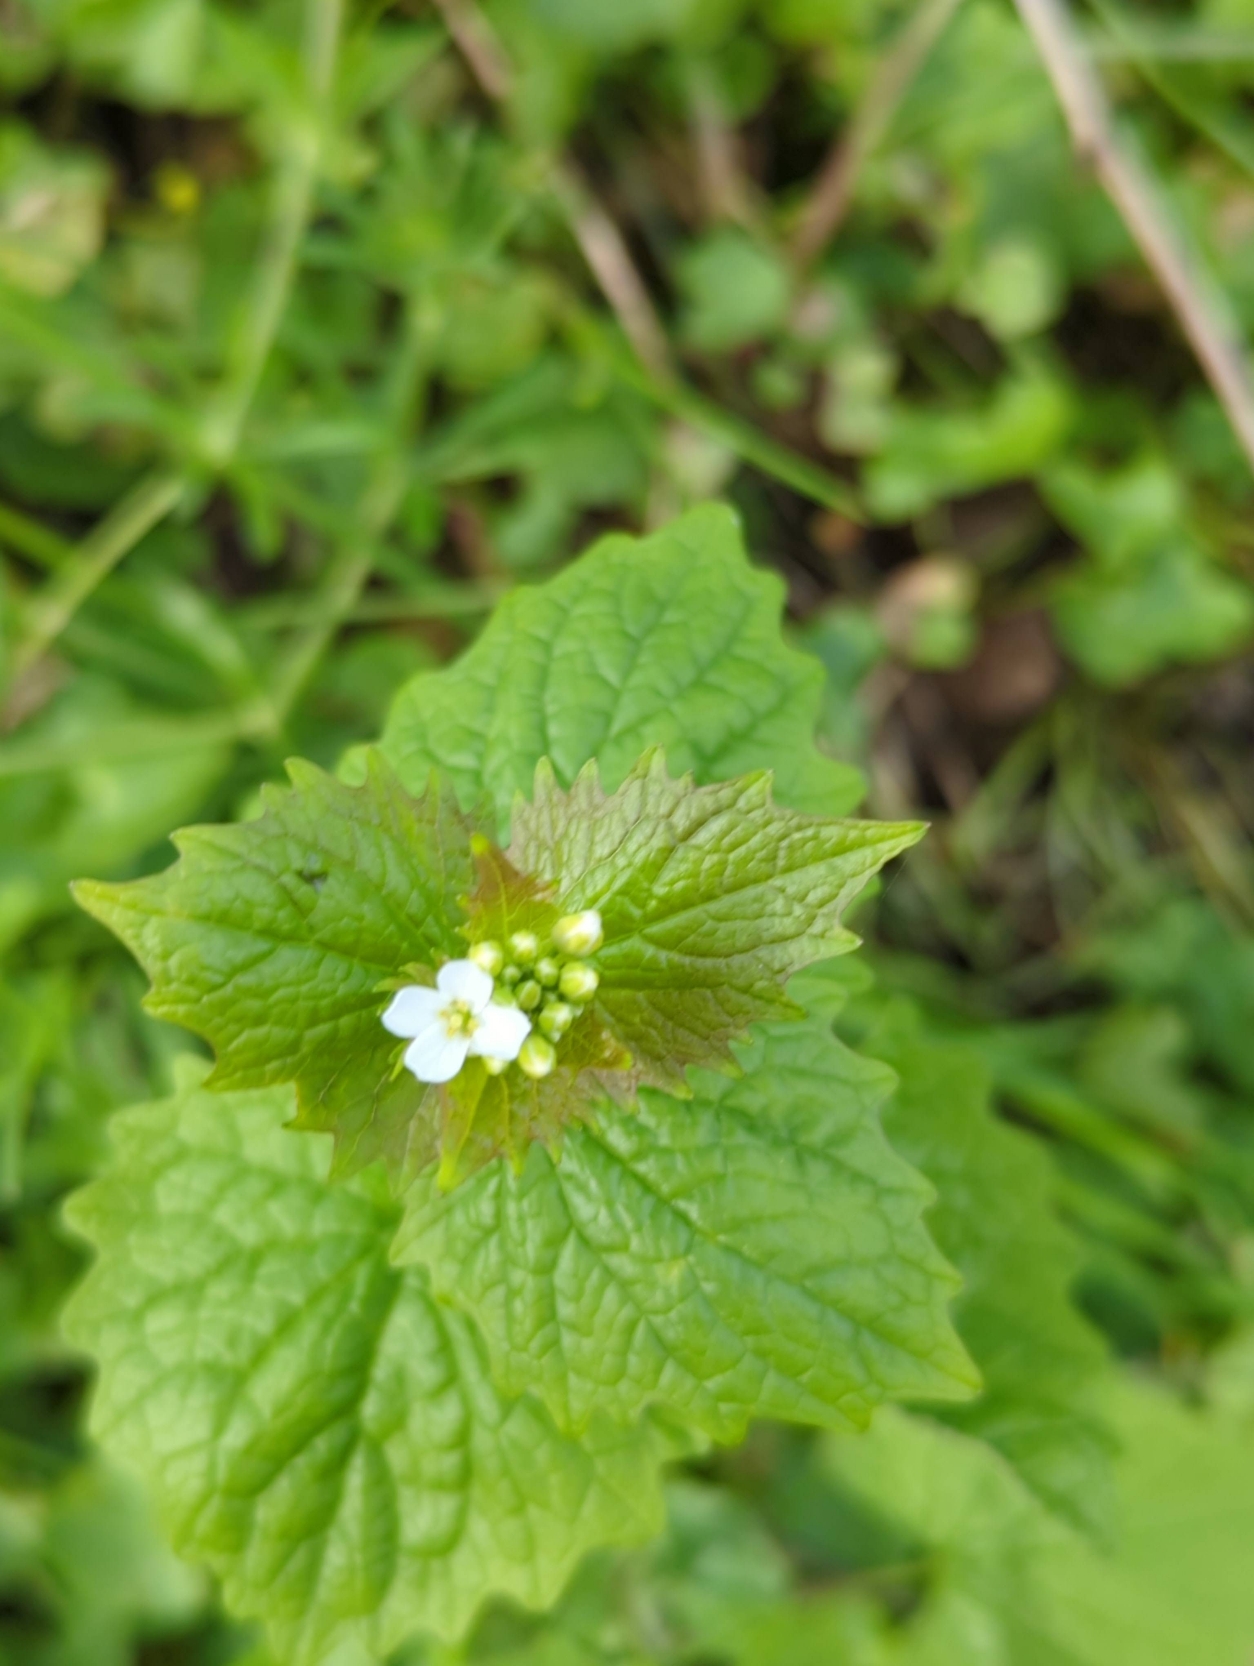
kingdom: Plantae
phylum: Tracheophyta
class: Magnoliopsida
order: Brassicales
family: Brassicaceae
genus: Alliaria
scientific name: Alliaria petiolata
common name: Løgkarse
